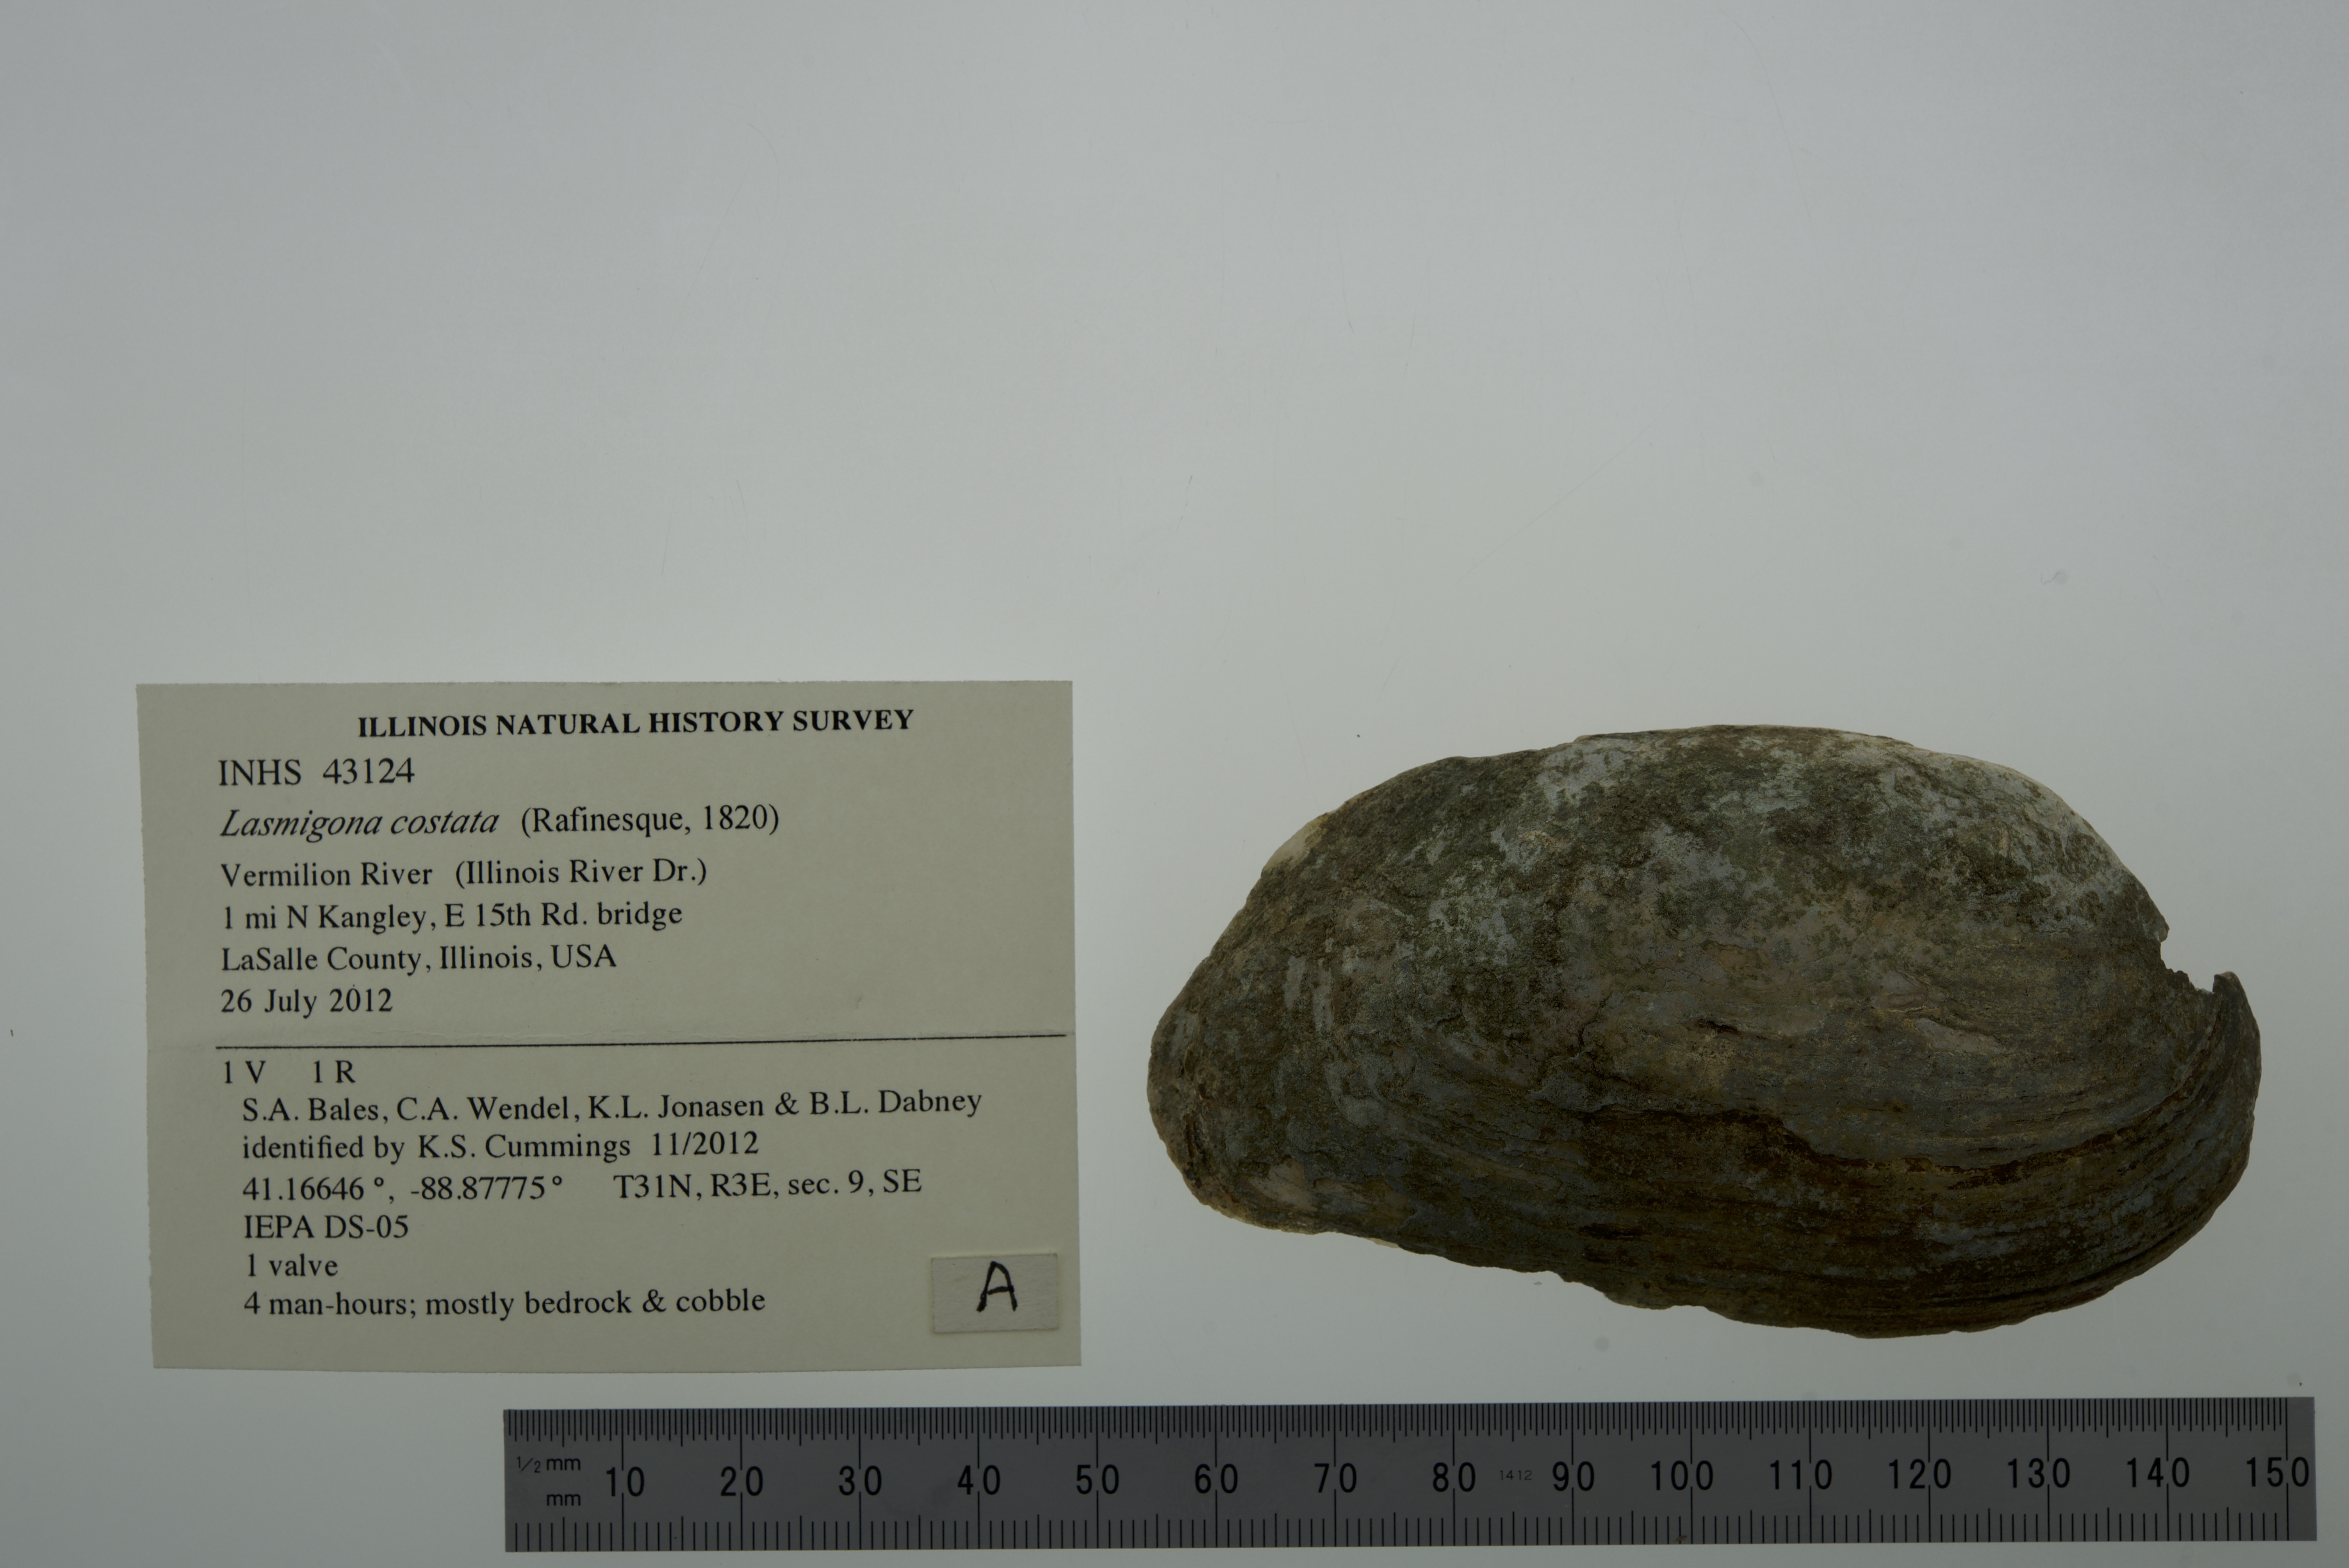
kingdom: Animalia
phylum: Mollusca
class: Bivalvia
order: Unionida
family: Unionidae
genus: Lasmigona
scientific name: Lasmigona costata
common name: Flutedshell
